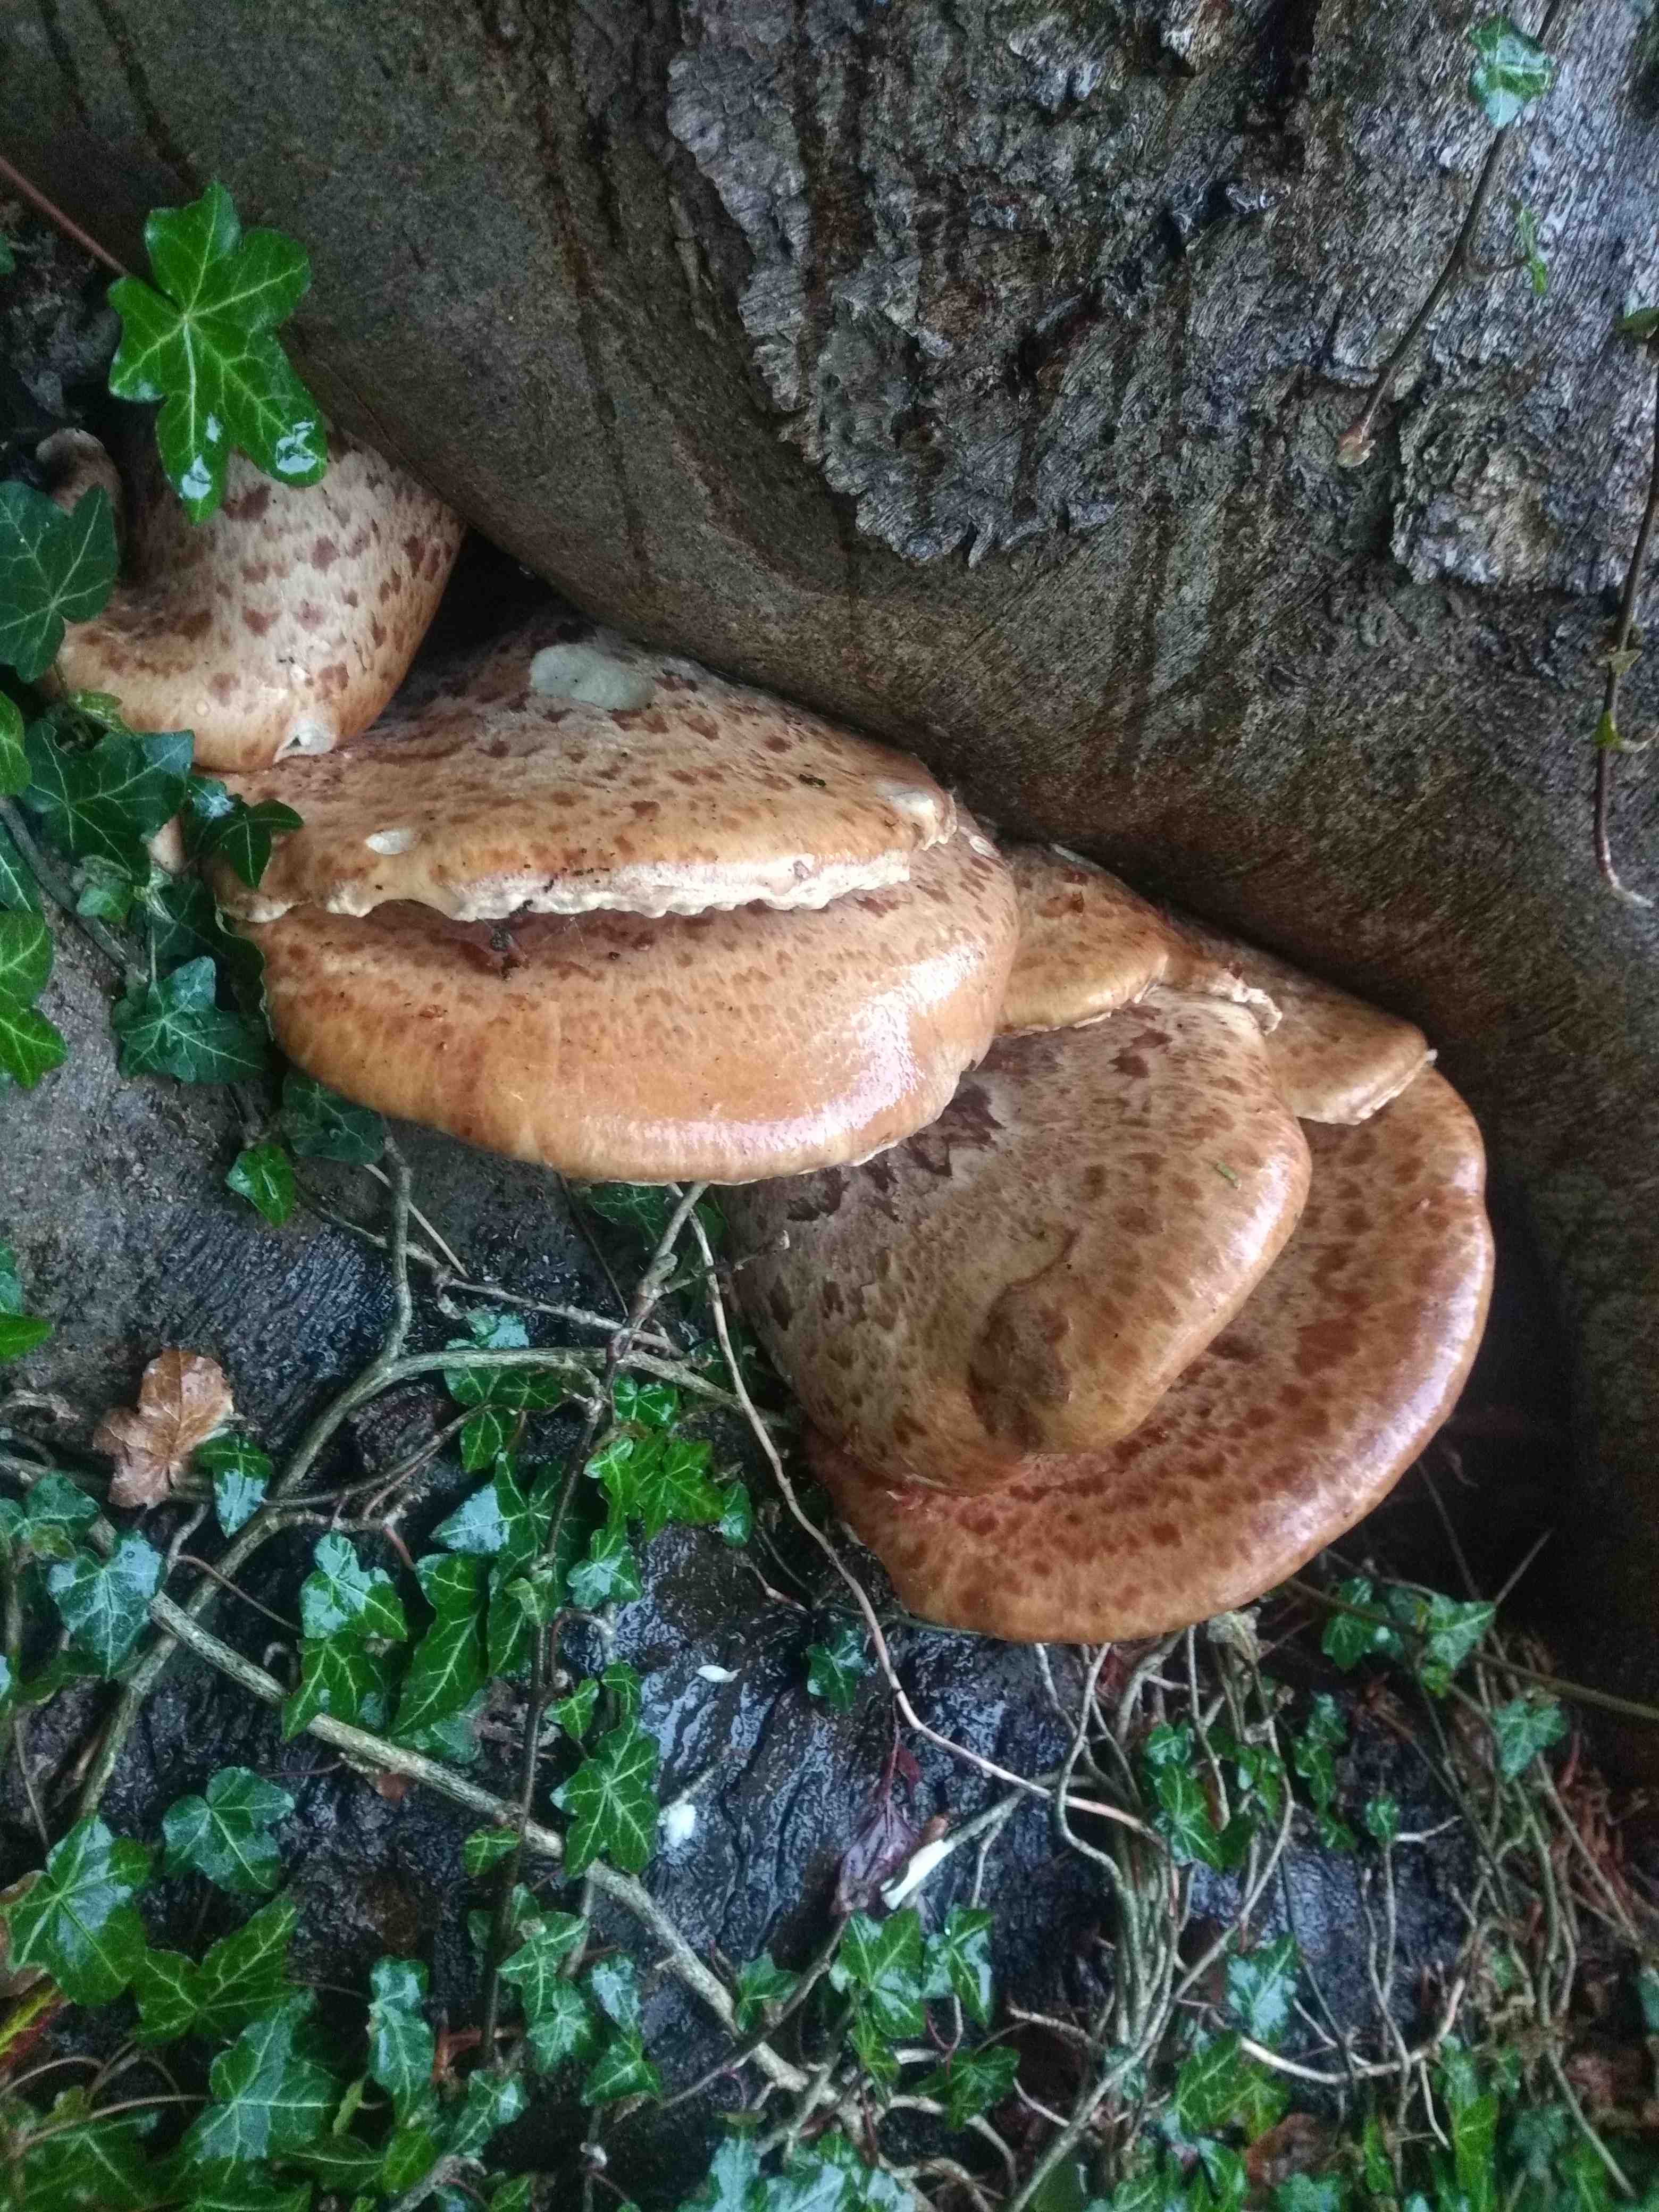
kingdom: Fungi
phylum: Basidiomycota
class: Agaricomycetes
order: Polyporales
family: Polyporaceae
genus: Cerioporus
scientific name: Cerioporus squamosus
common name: skællet stilkporesvamp
